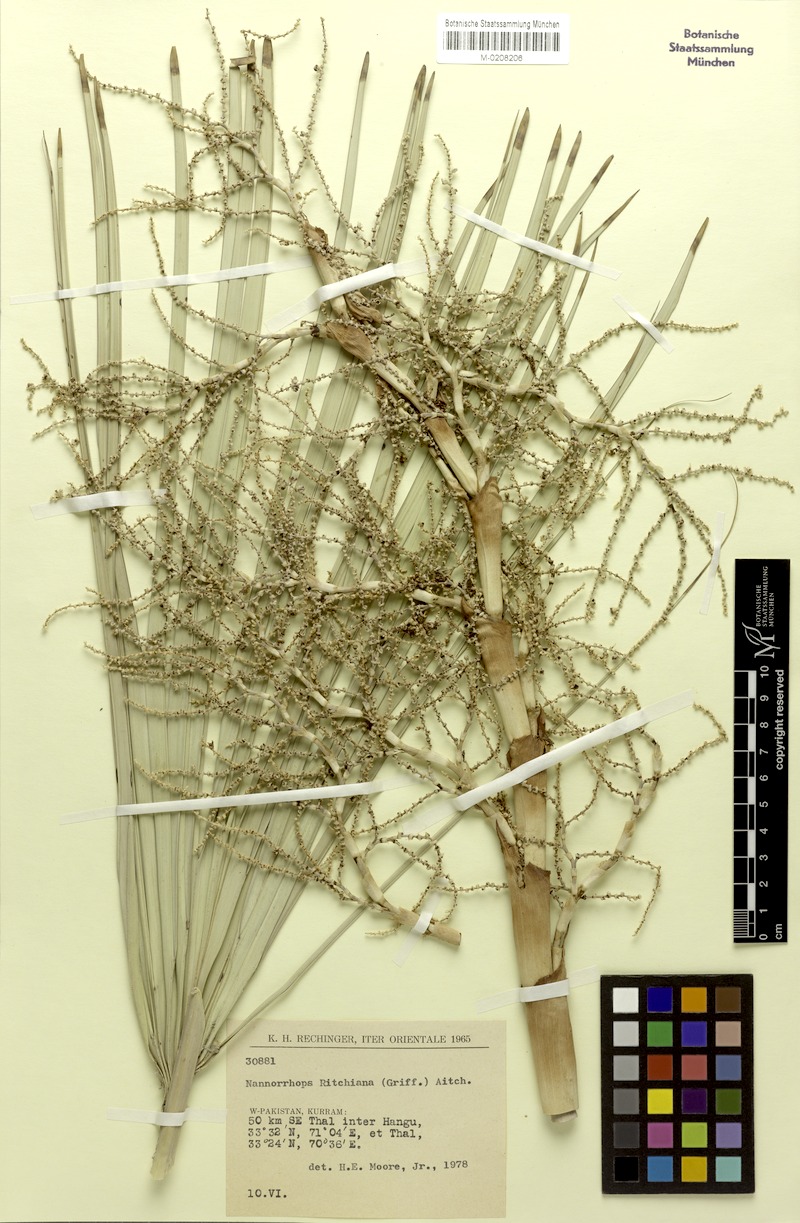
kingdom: Plantae
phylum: Tracheophyta
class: Liliopsida
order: Arecales
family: Arecaceae
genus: Nannorrhops
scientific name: Nannorrhops ritchieana
